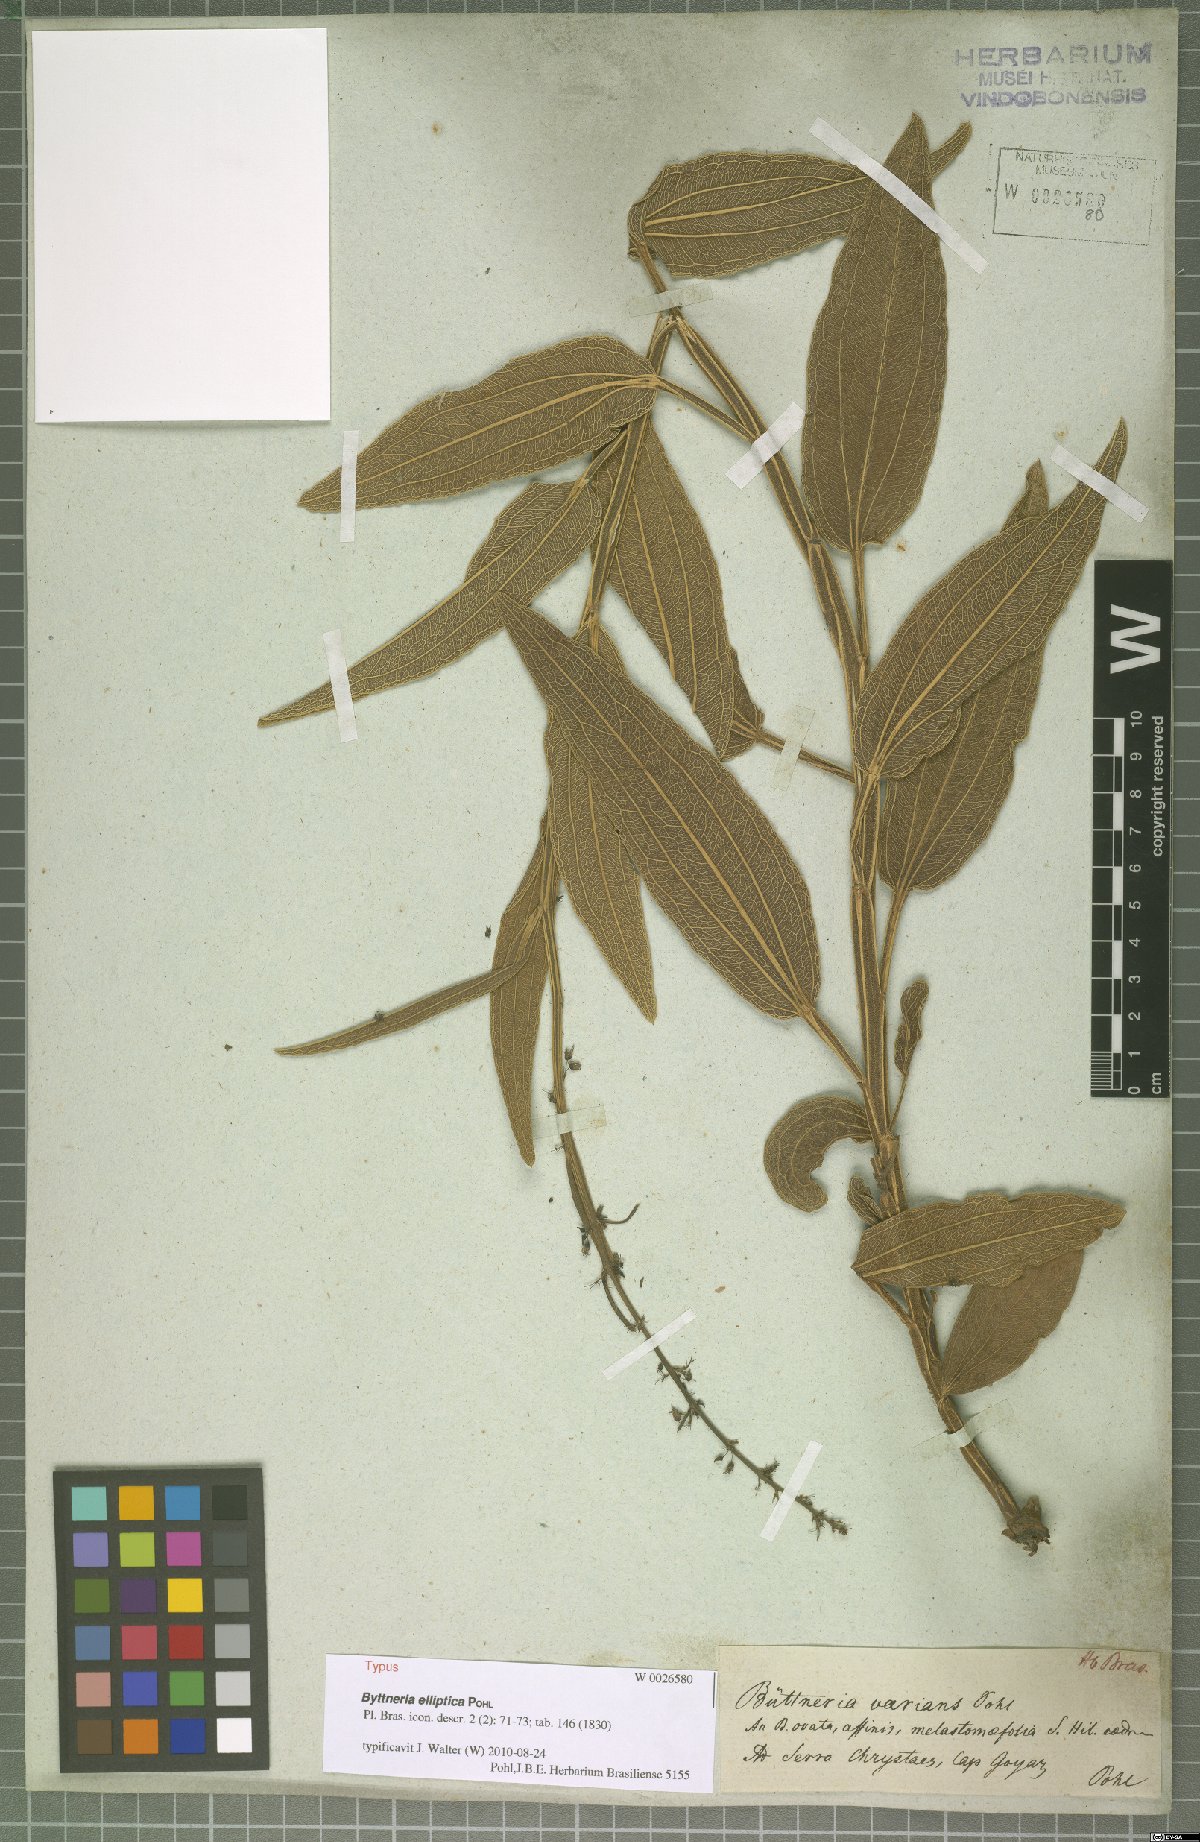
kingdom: Plantae
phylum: Tracheophyta
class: Magnoliopsida
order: Malvales
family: Malvaceae
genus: Byttneria
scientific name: Byttneria elliptica
